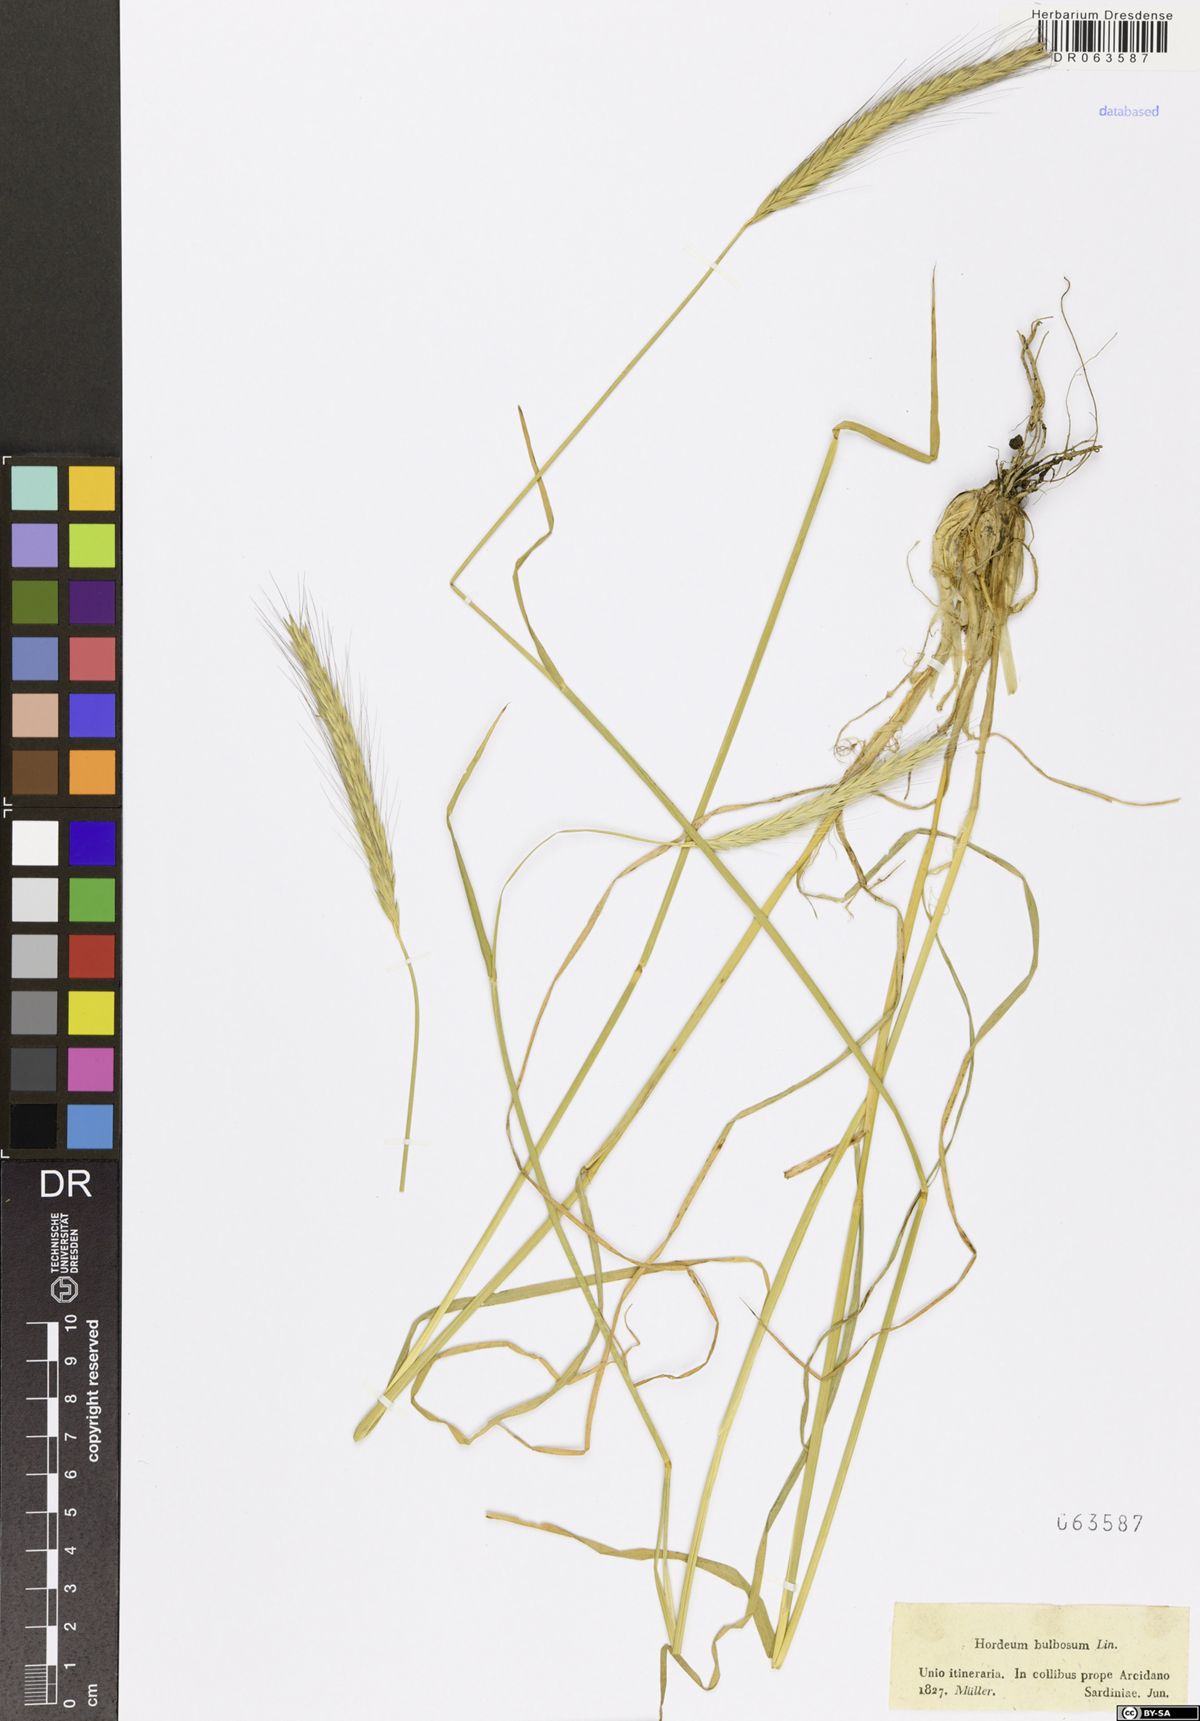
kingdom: Plantae
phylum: Tracheophyta
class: Liliopsida
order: Poales
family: Poaceae
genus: Hordeum
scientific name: Hordeum bulbosum
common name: Bulbous barley
